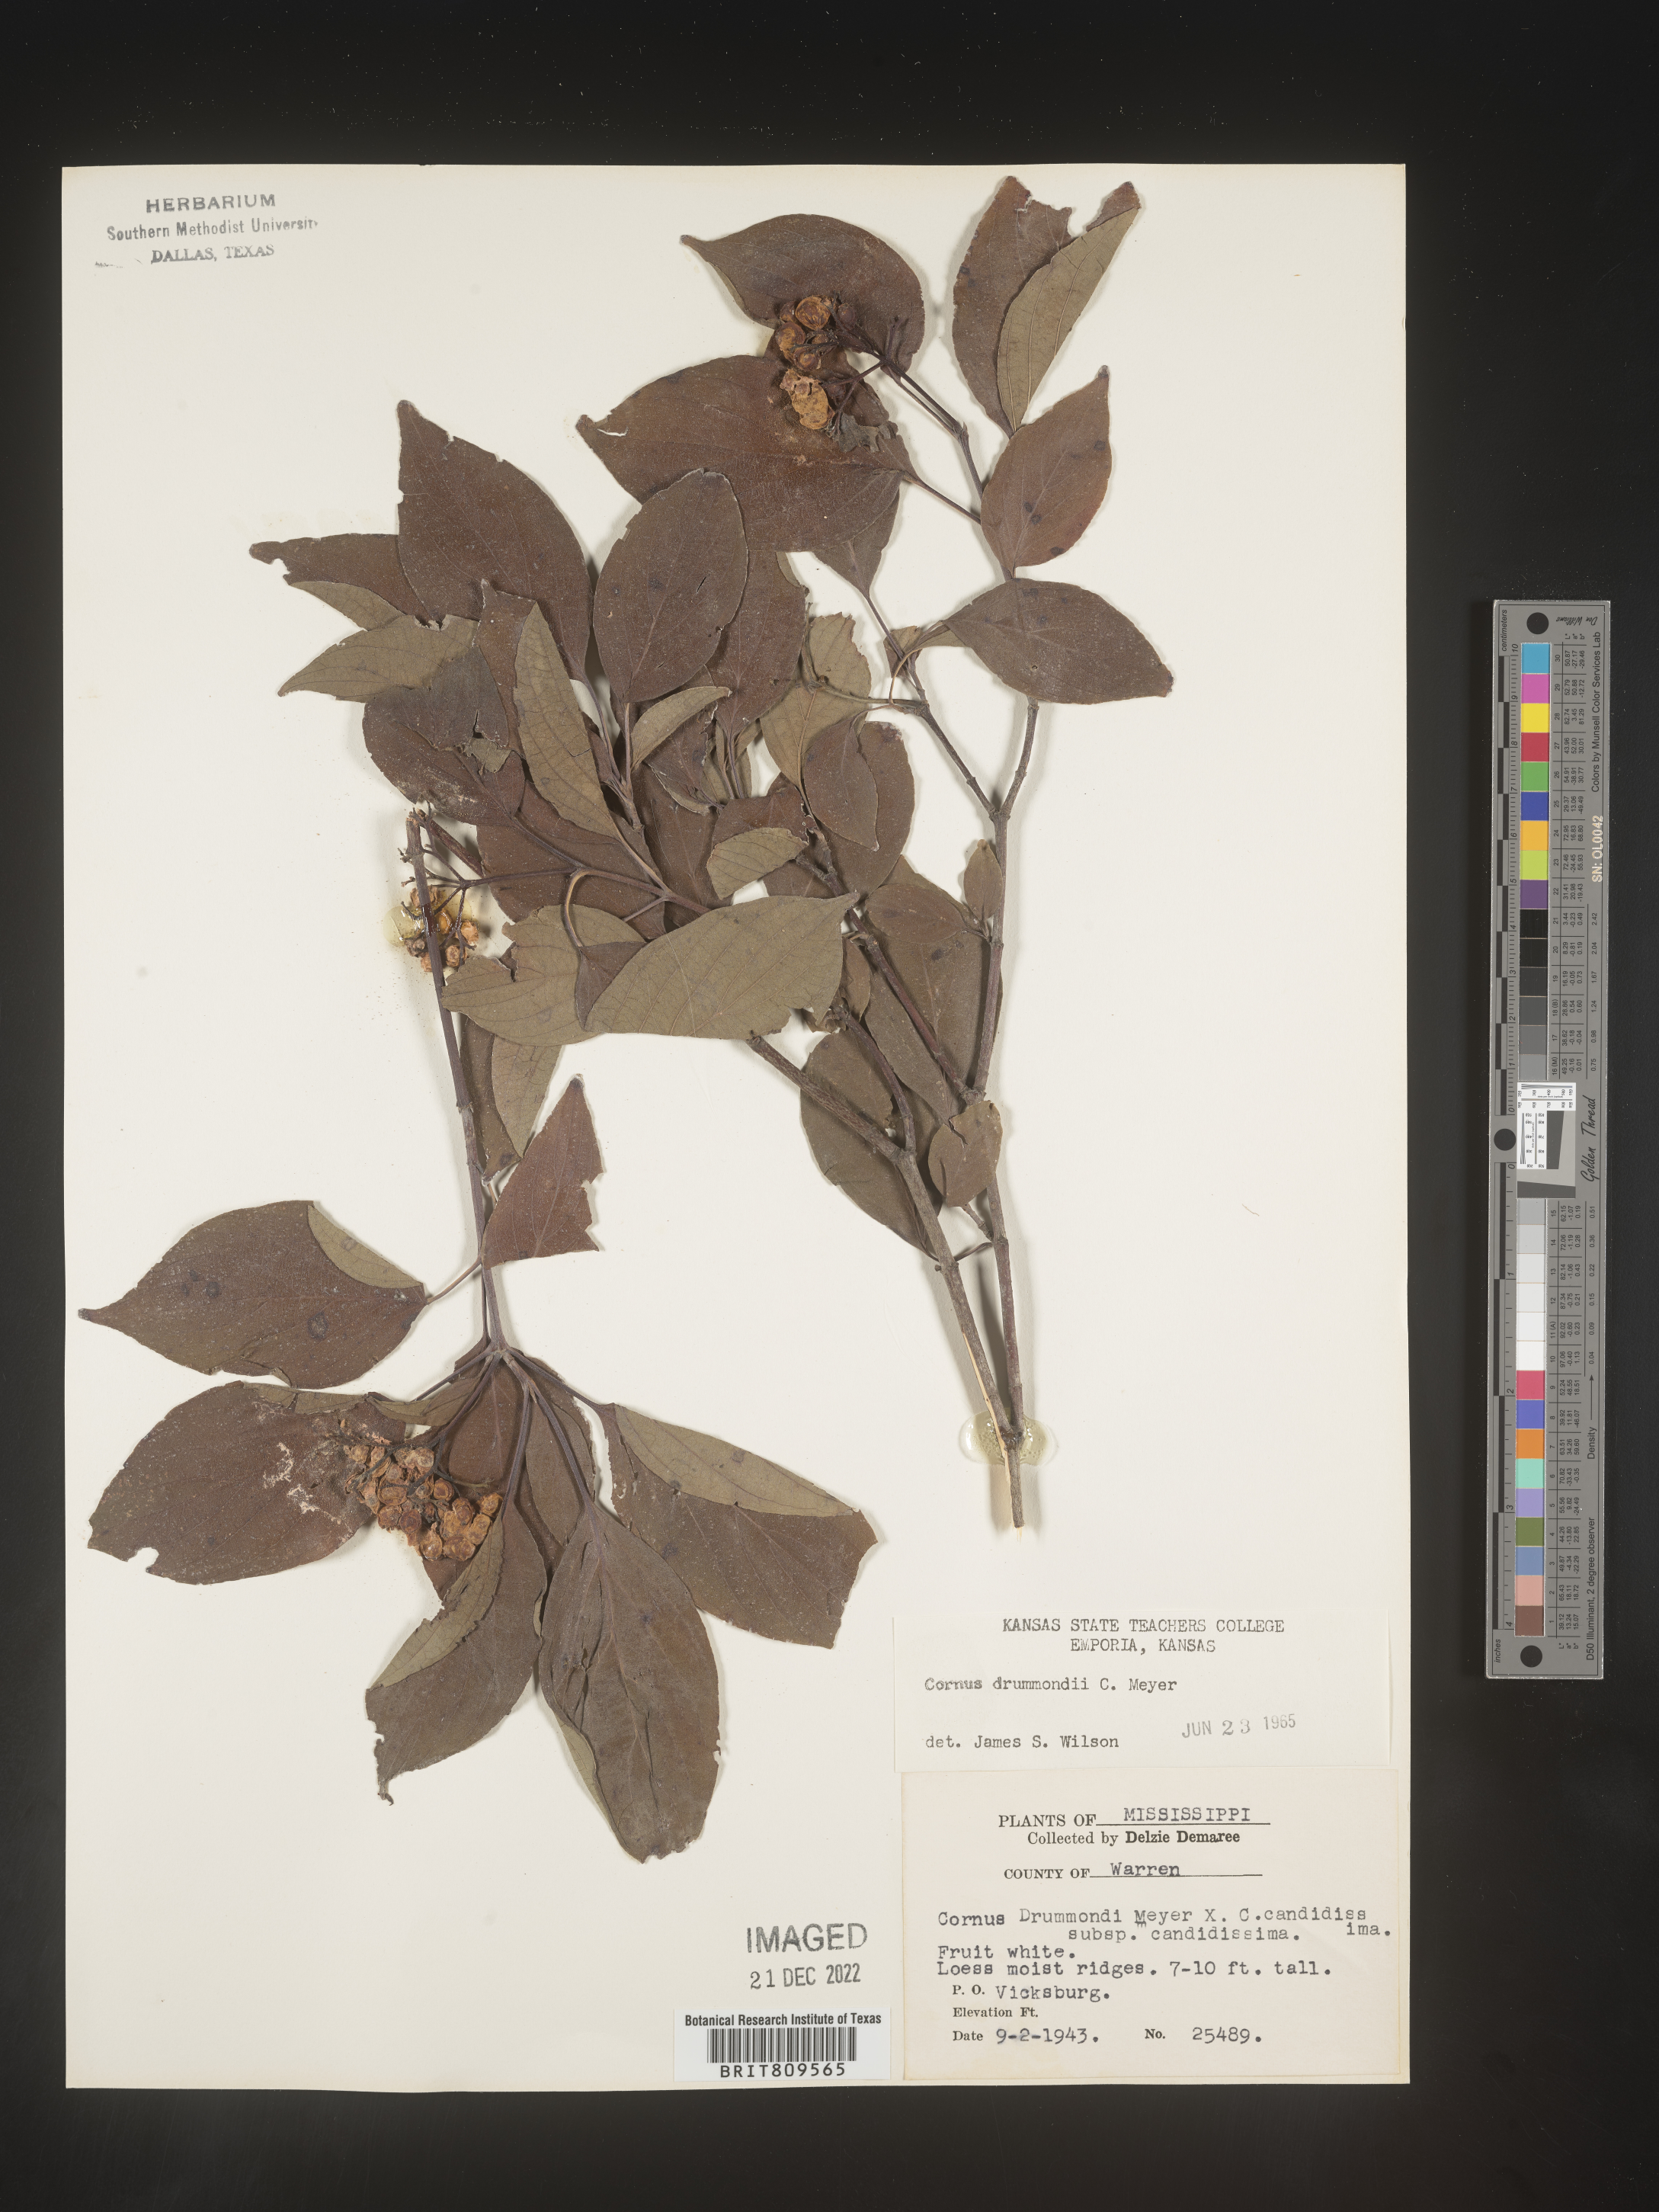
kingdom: Plantae
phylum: Tracheophyta
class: Magnoliopsida
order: Cornales
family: Cornaceae
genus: Cornus
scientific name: Cornus drummondii
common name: Rough-leaf dogwood
